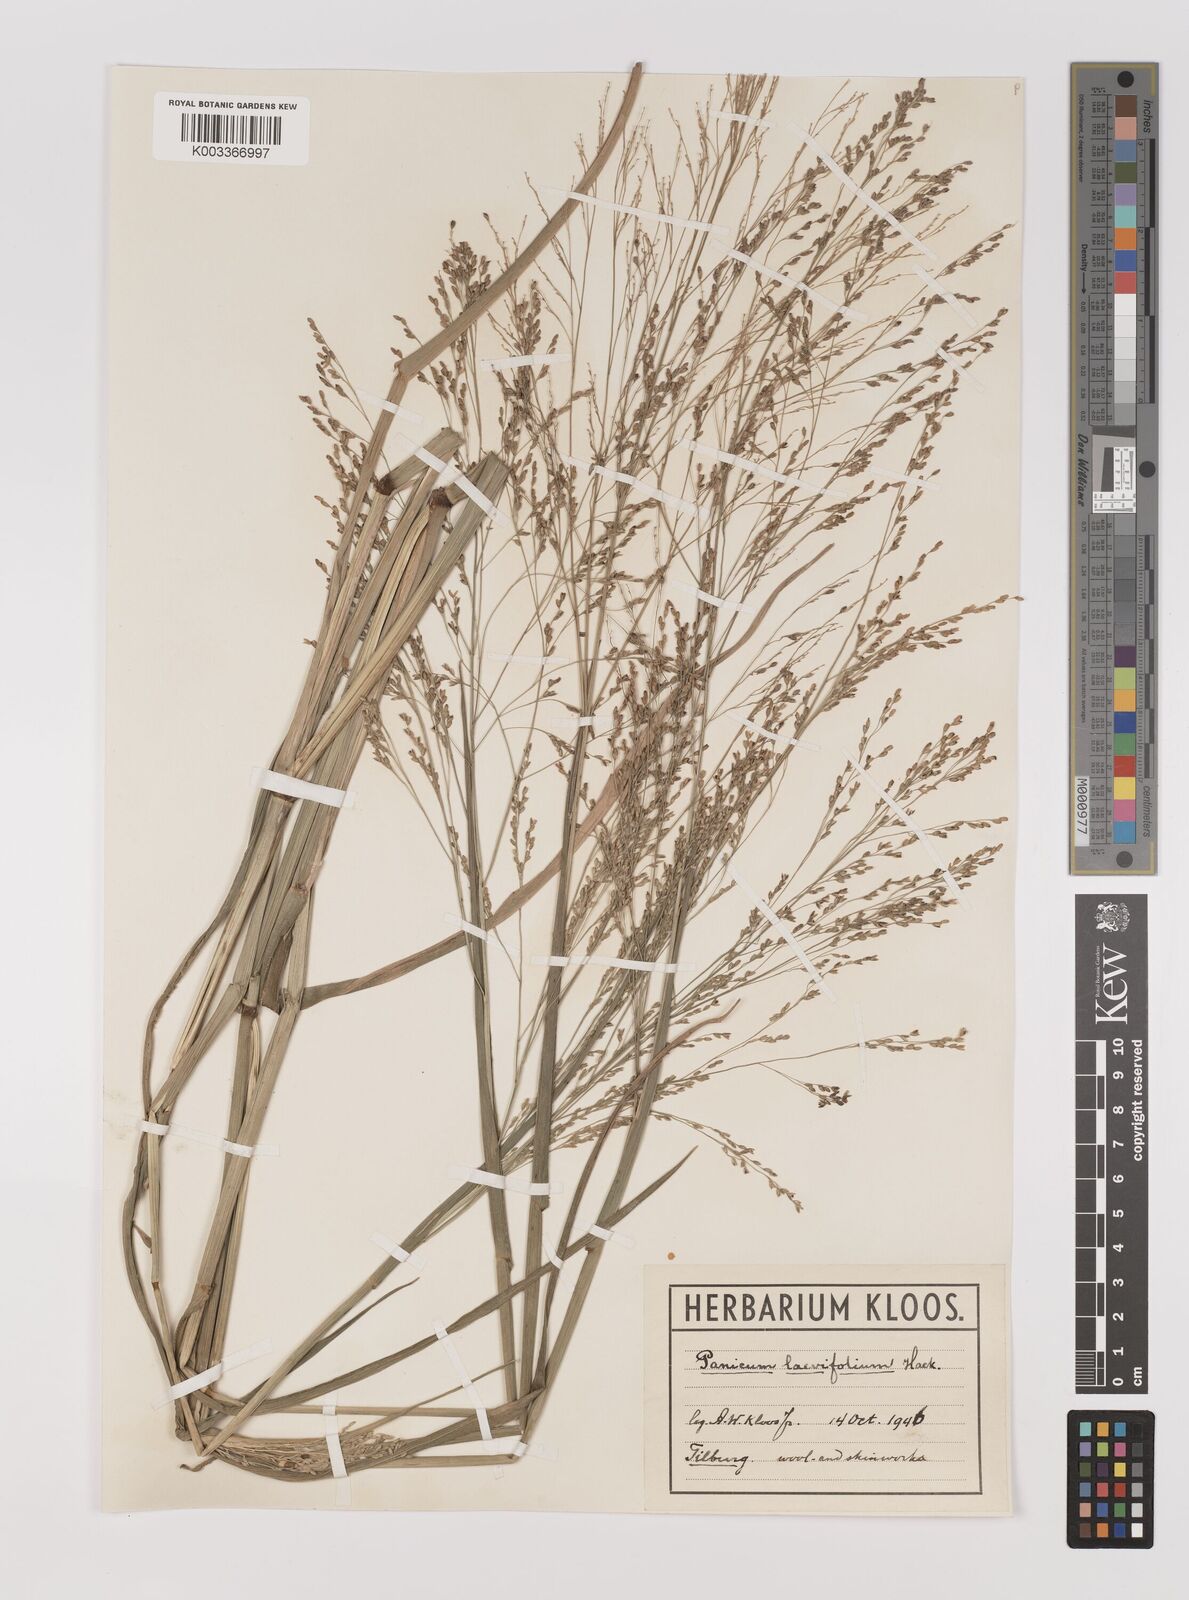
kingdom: Plantae
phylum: Tracheophyta
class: Liliopsida
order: Poales
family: Poaceae
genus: Panicum
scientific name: Panicum schinzii
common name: Sweet grass
